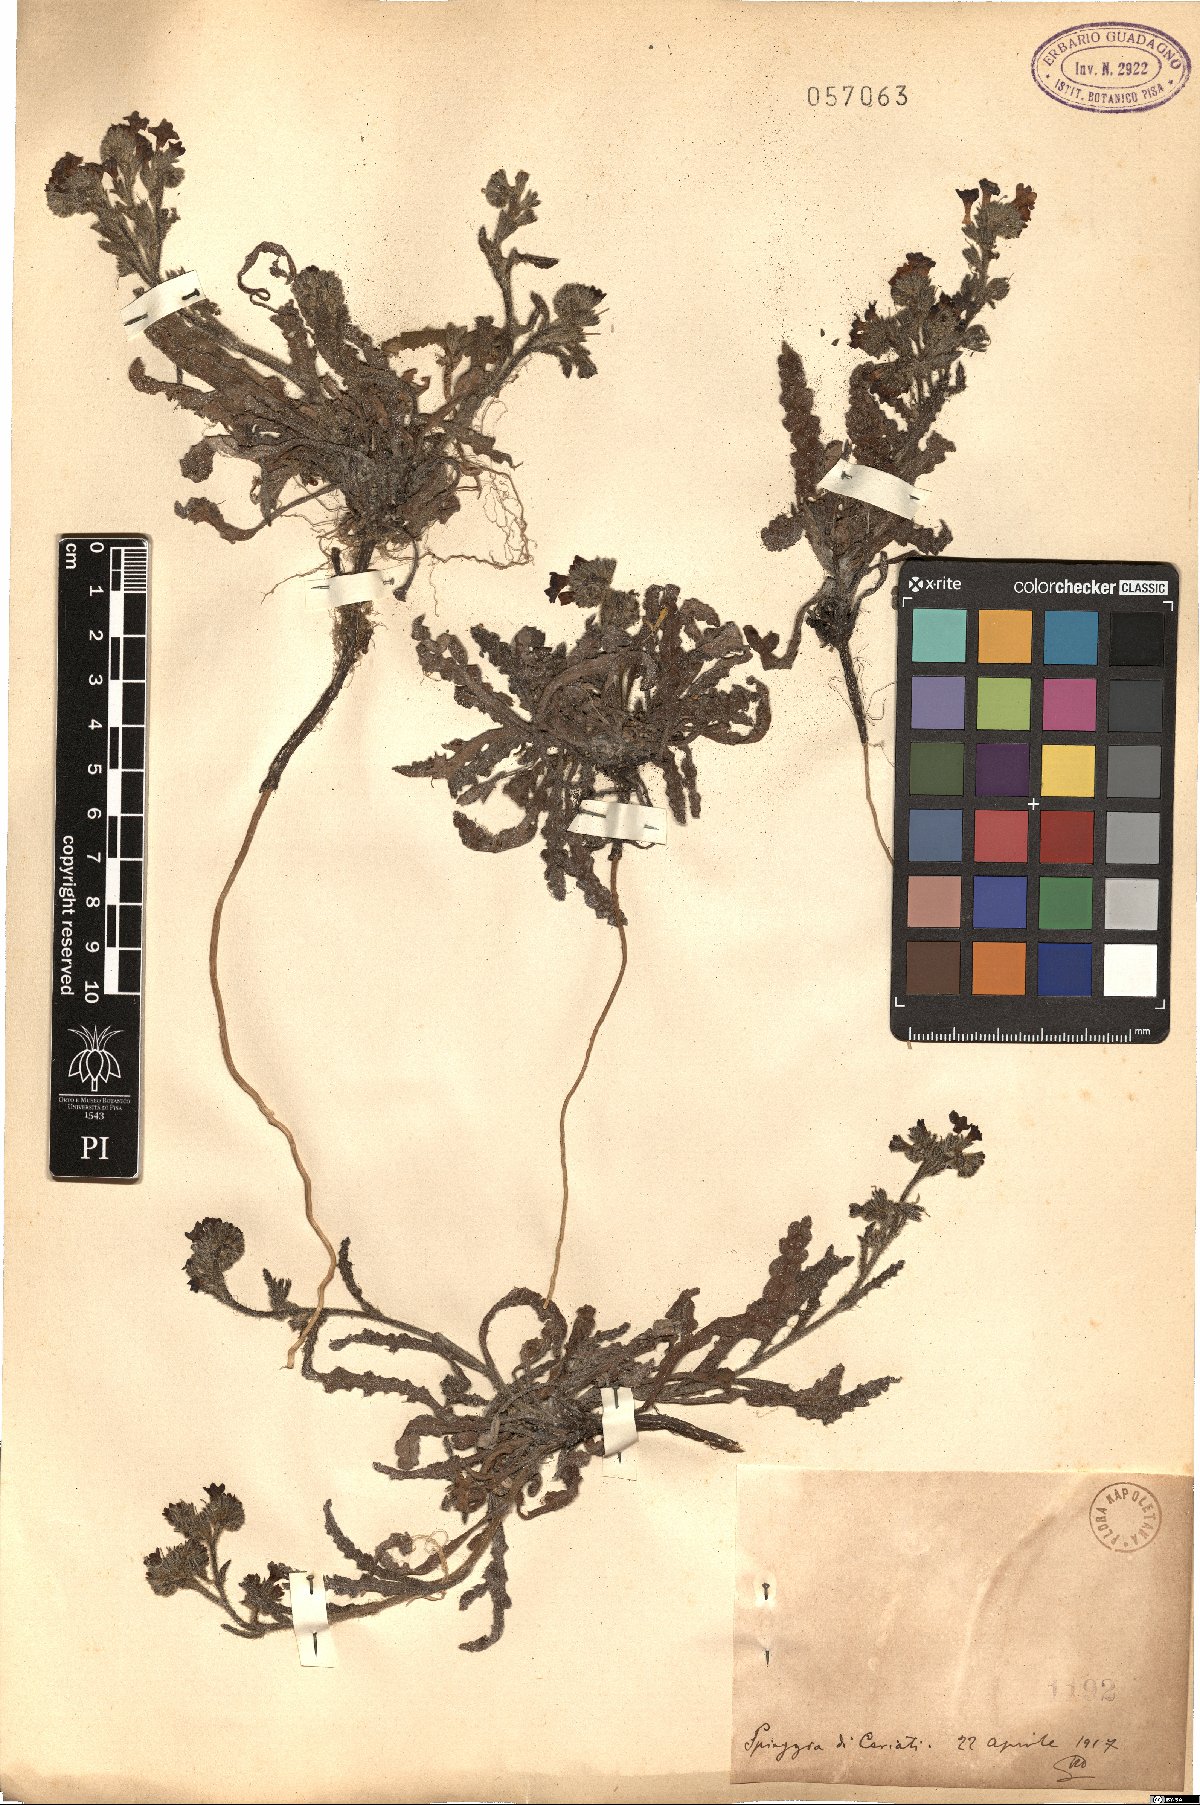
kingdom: Plantae
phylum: Tracheophyta
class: Magnoliopsida
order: Boraginales
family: Boraginaceae
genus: Anchusa
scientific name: Anchusa
